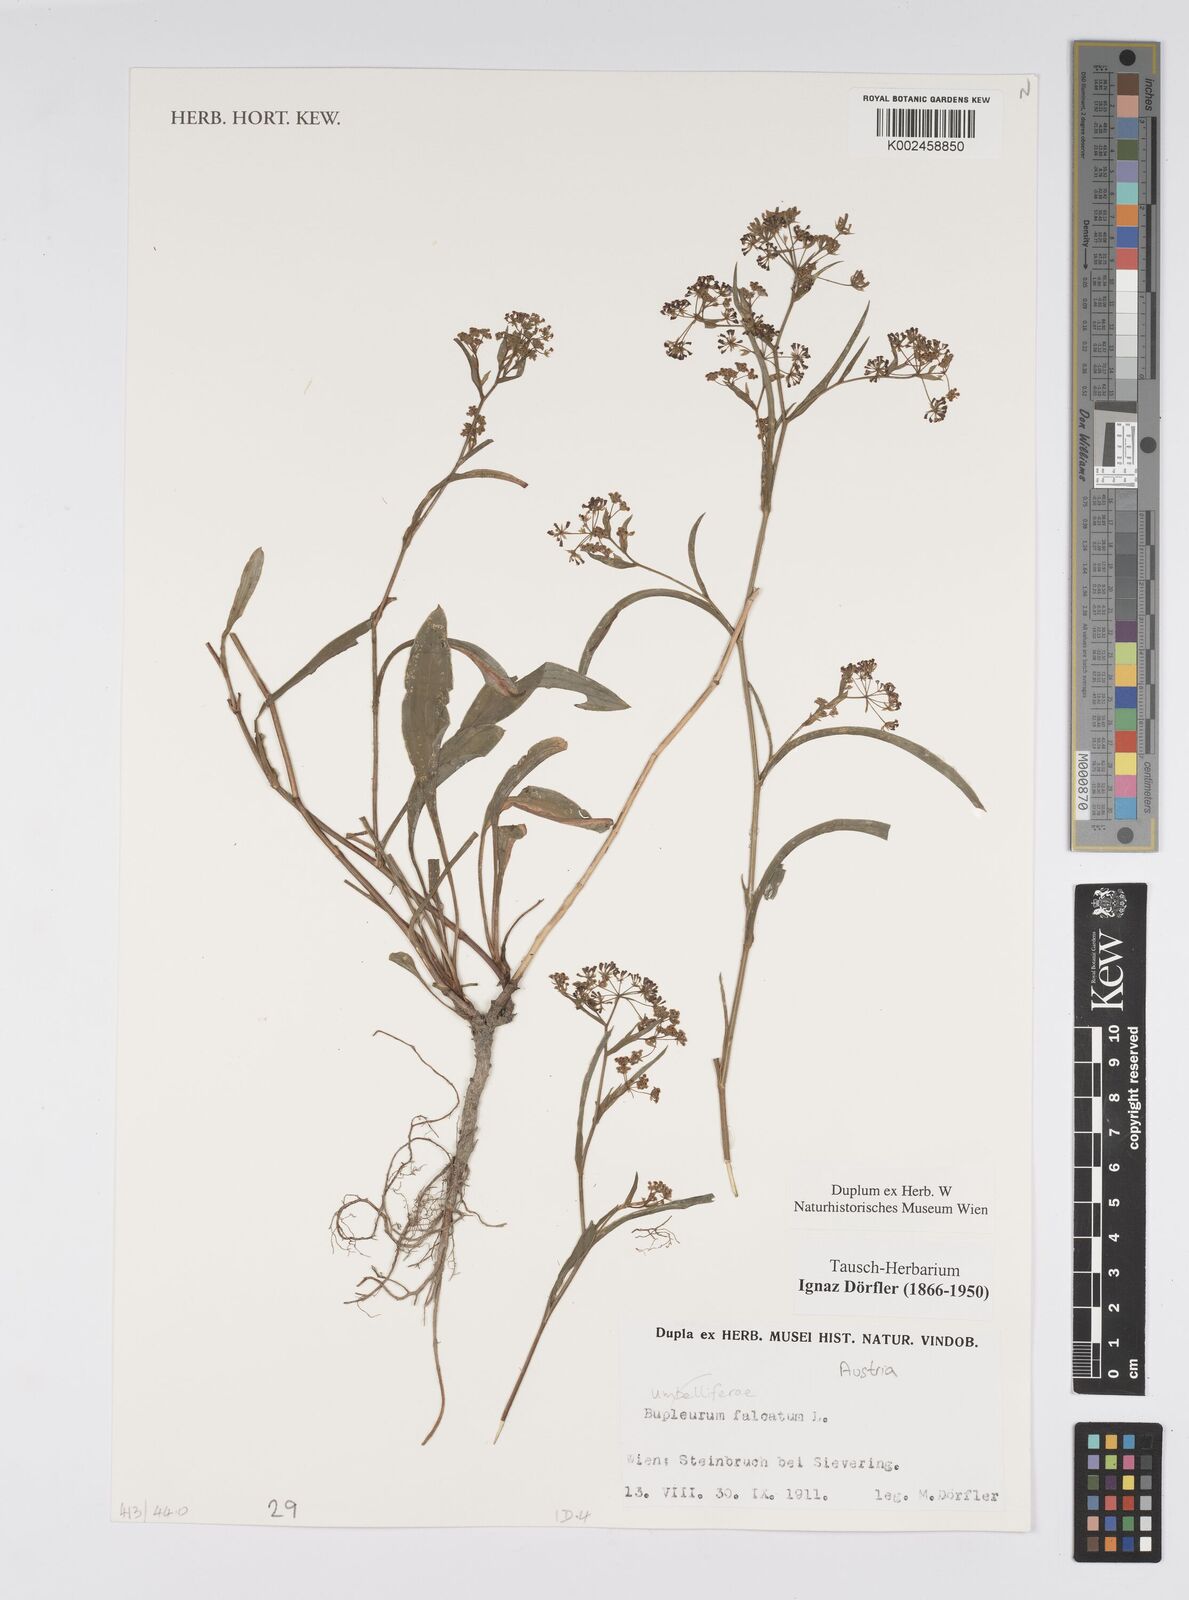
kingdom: Plantae
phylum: Tracheophyta
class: Magnoliopsida
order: Apiales
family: Apiaceae
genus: Bupleurum
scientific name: Bupleurum falcatum
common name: Sickle-leaved hare's-ear
